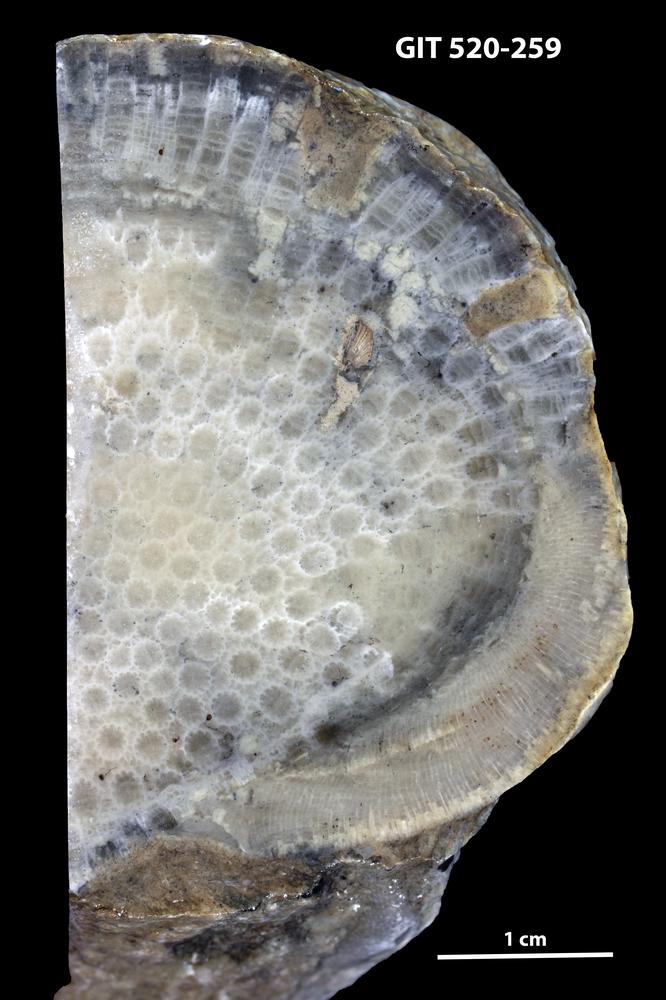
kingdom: Animalia
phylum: Xenacoelomorpha
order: Acoela
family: Proporidae
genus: Propora
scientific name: Propora
